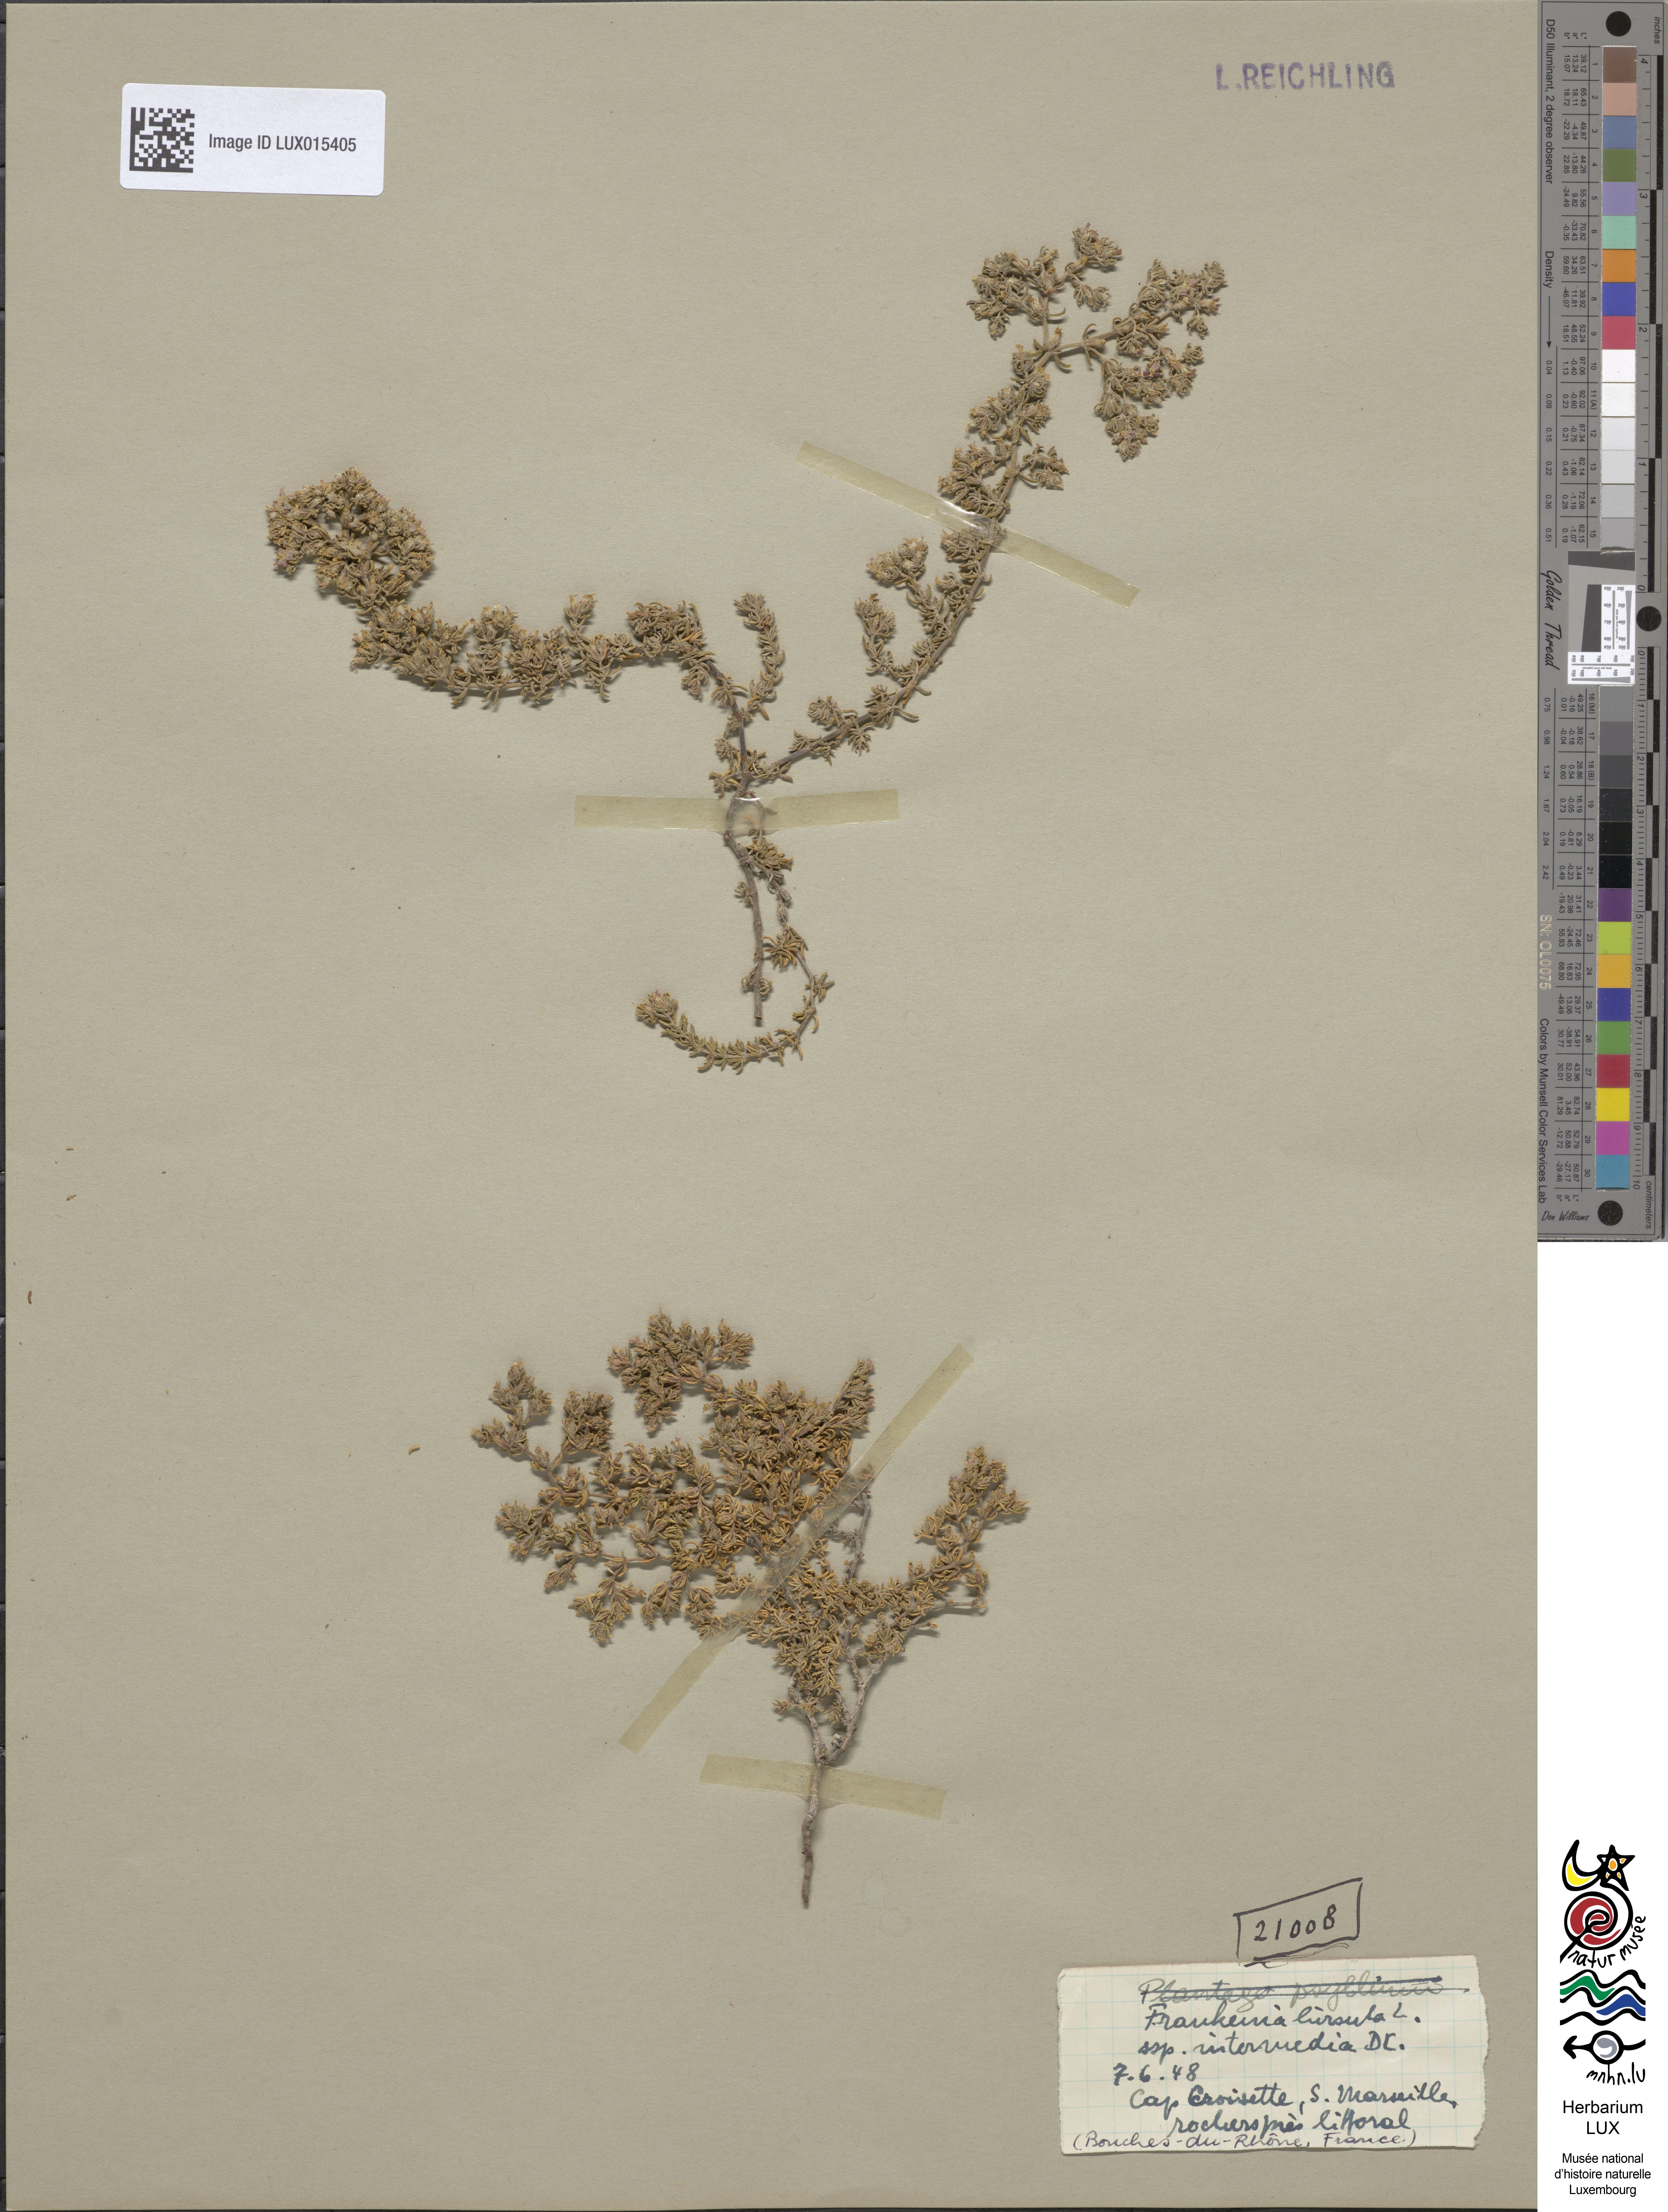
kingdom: Plantae
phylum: Tracheophyta
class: Magnoliopsida
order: Caryophyllales
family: Frankeniaceae
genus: Frankenia
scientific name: Frankenia hirsuta
